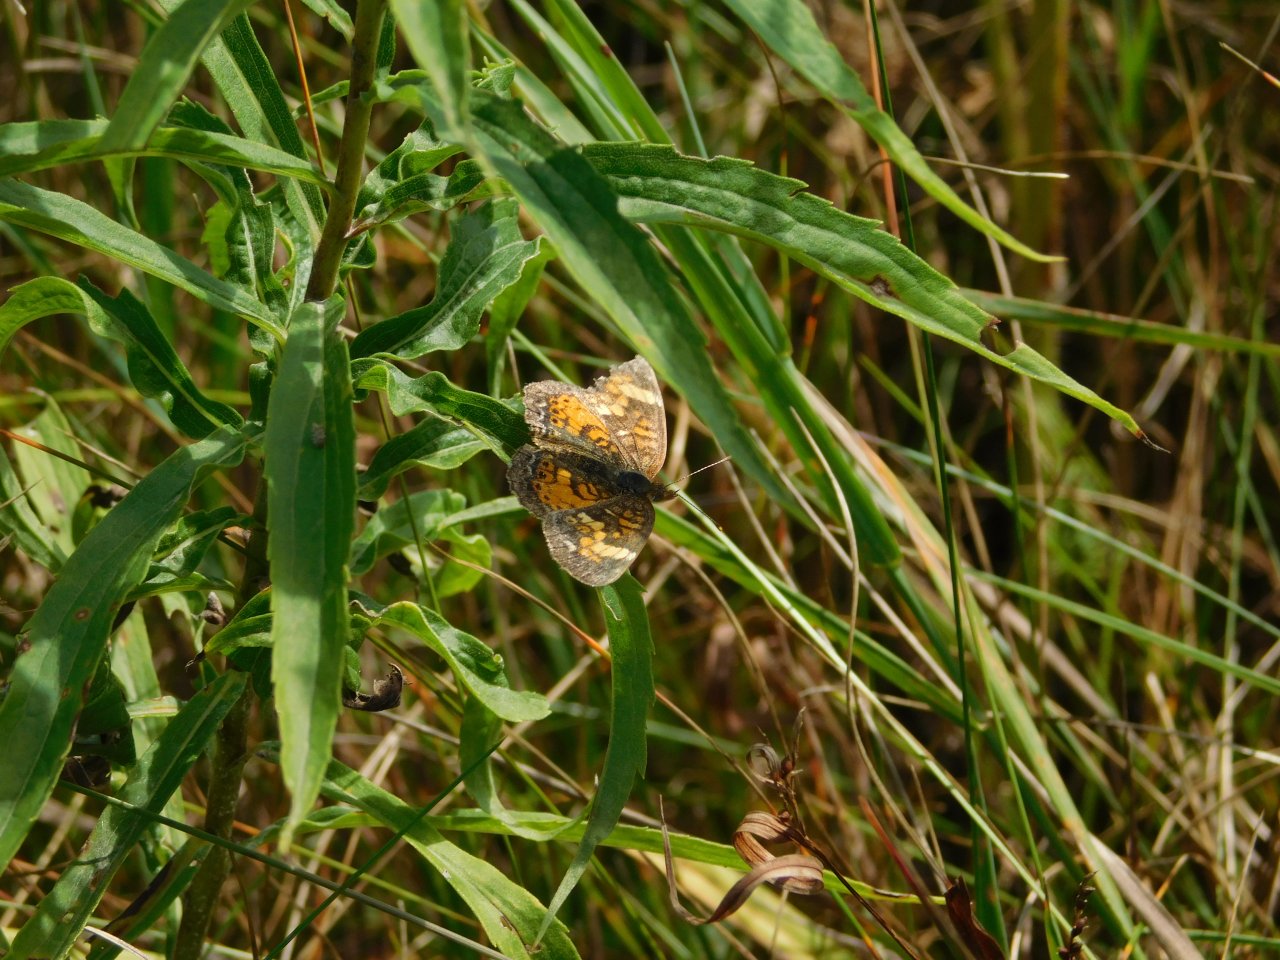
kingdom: Animalia
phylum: Arthropoda
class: Insecta
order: Lepidoptera
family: Nymphalidae
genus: Phyciodes
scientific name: Phyciodes tharos
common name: Pearl Crescent
